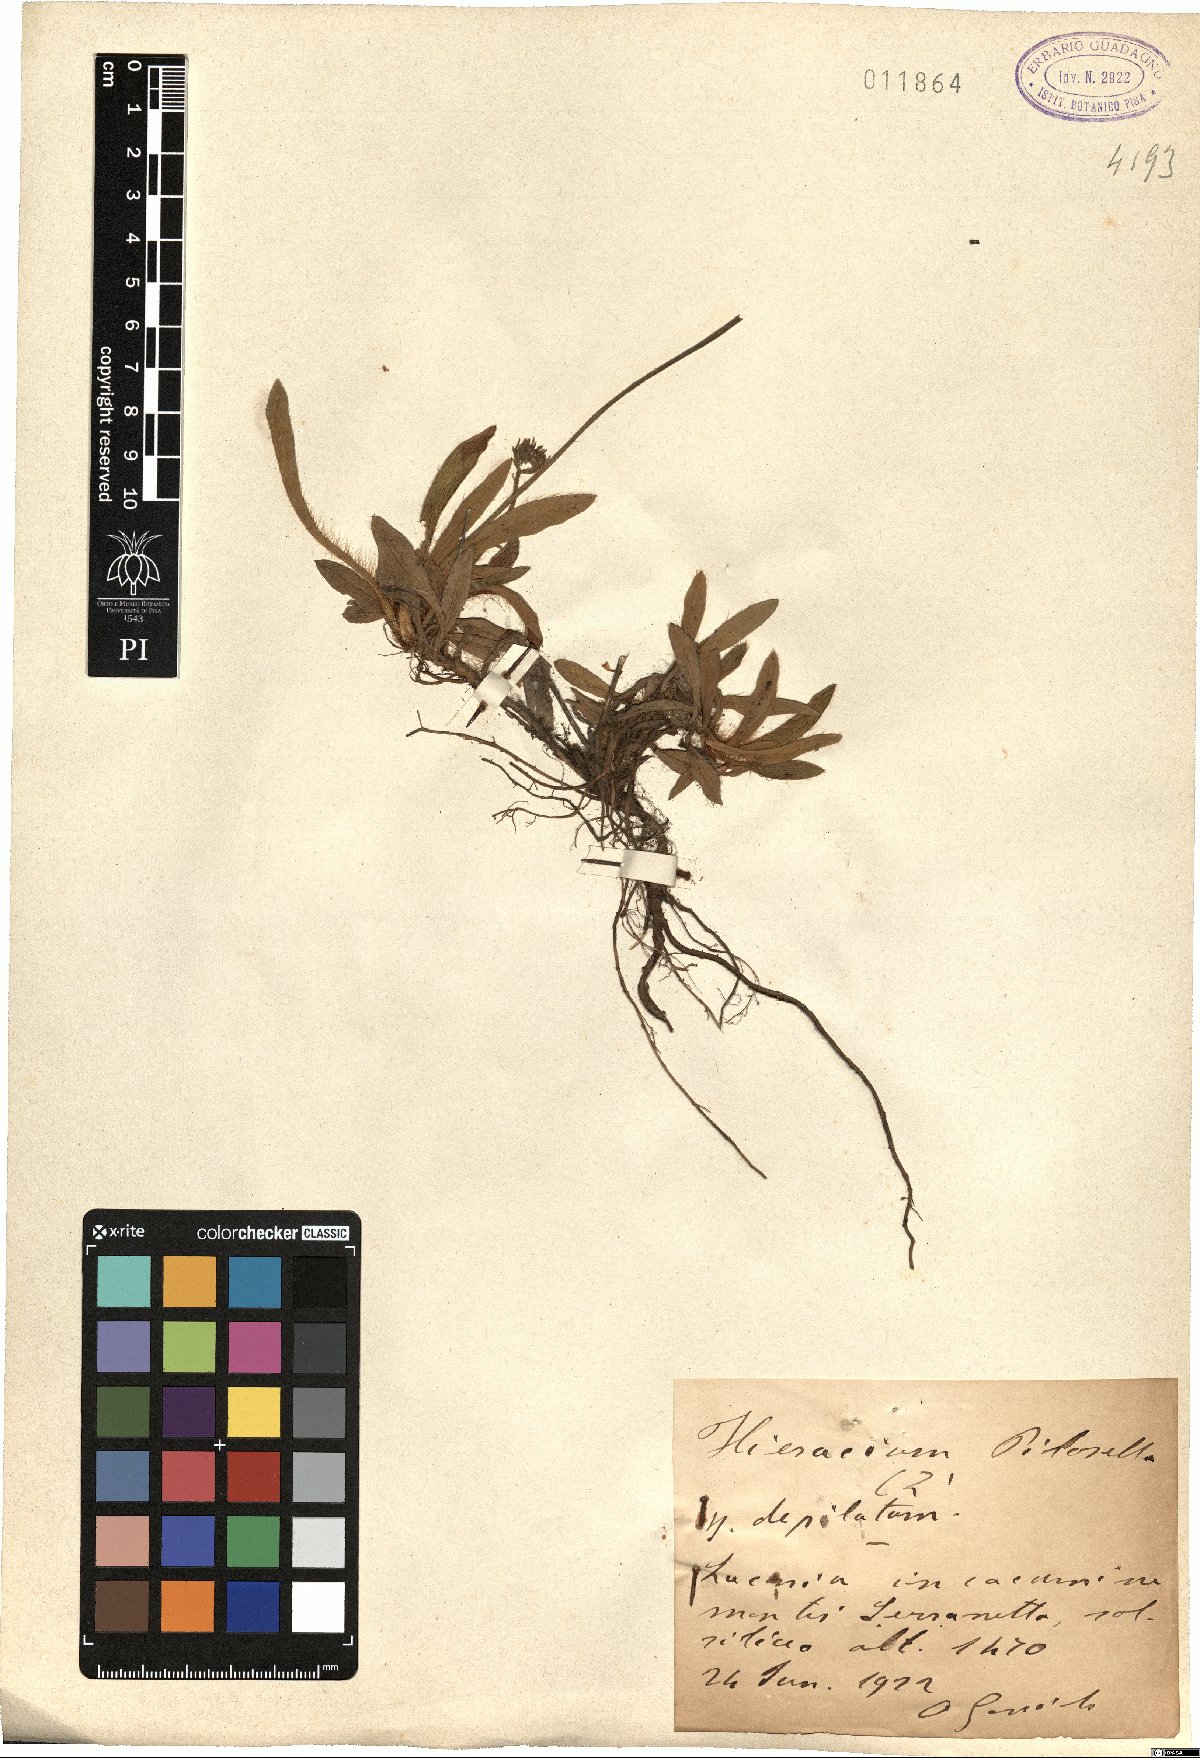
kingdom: Plantae
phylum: Tracheophyta
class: Magnoliopsida
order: Asterales
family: Asteraceae
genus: Pilosella
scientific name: Pilosella officinarum
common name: Mouse-ear hawkweed
